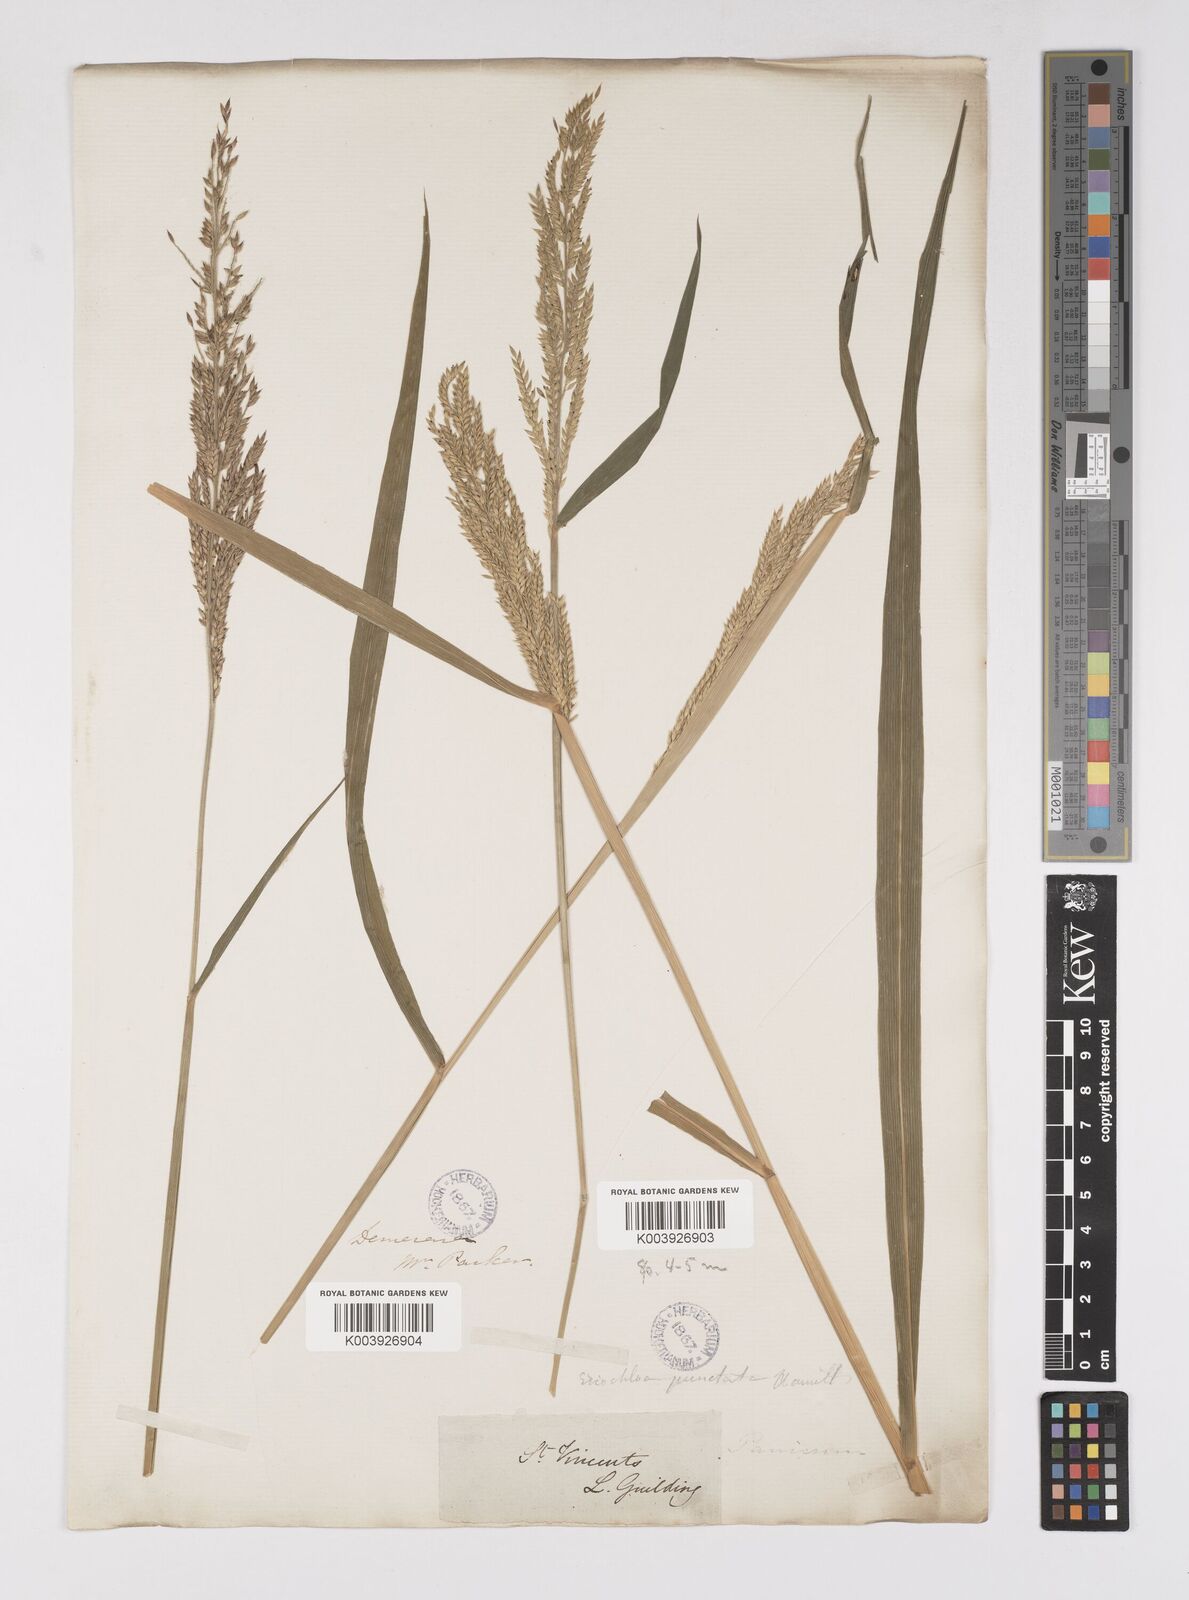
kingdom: Plantae
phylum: Tracheophyta
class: Liliopsida
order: Poales
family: Poaceae
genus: Eriochloa
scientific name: Eriochloa punctata
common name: Louisiana cupgrass
